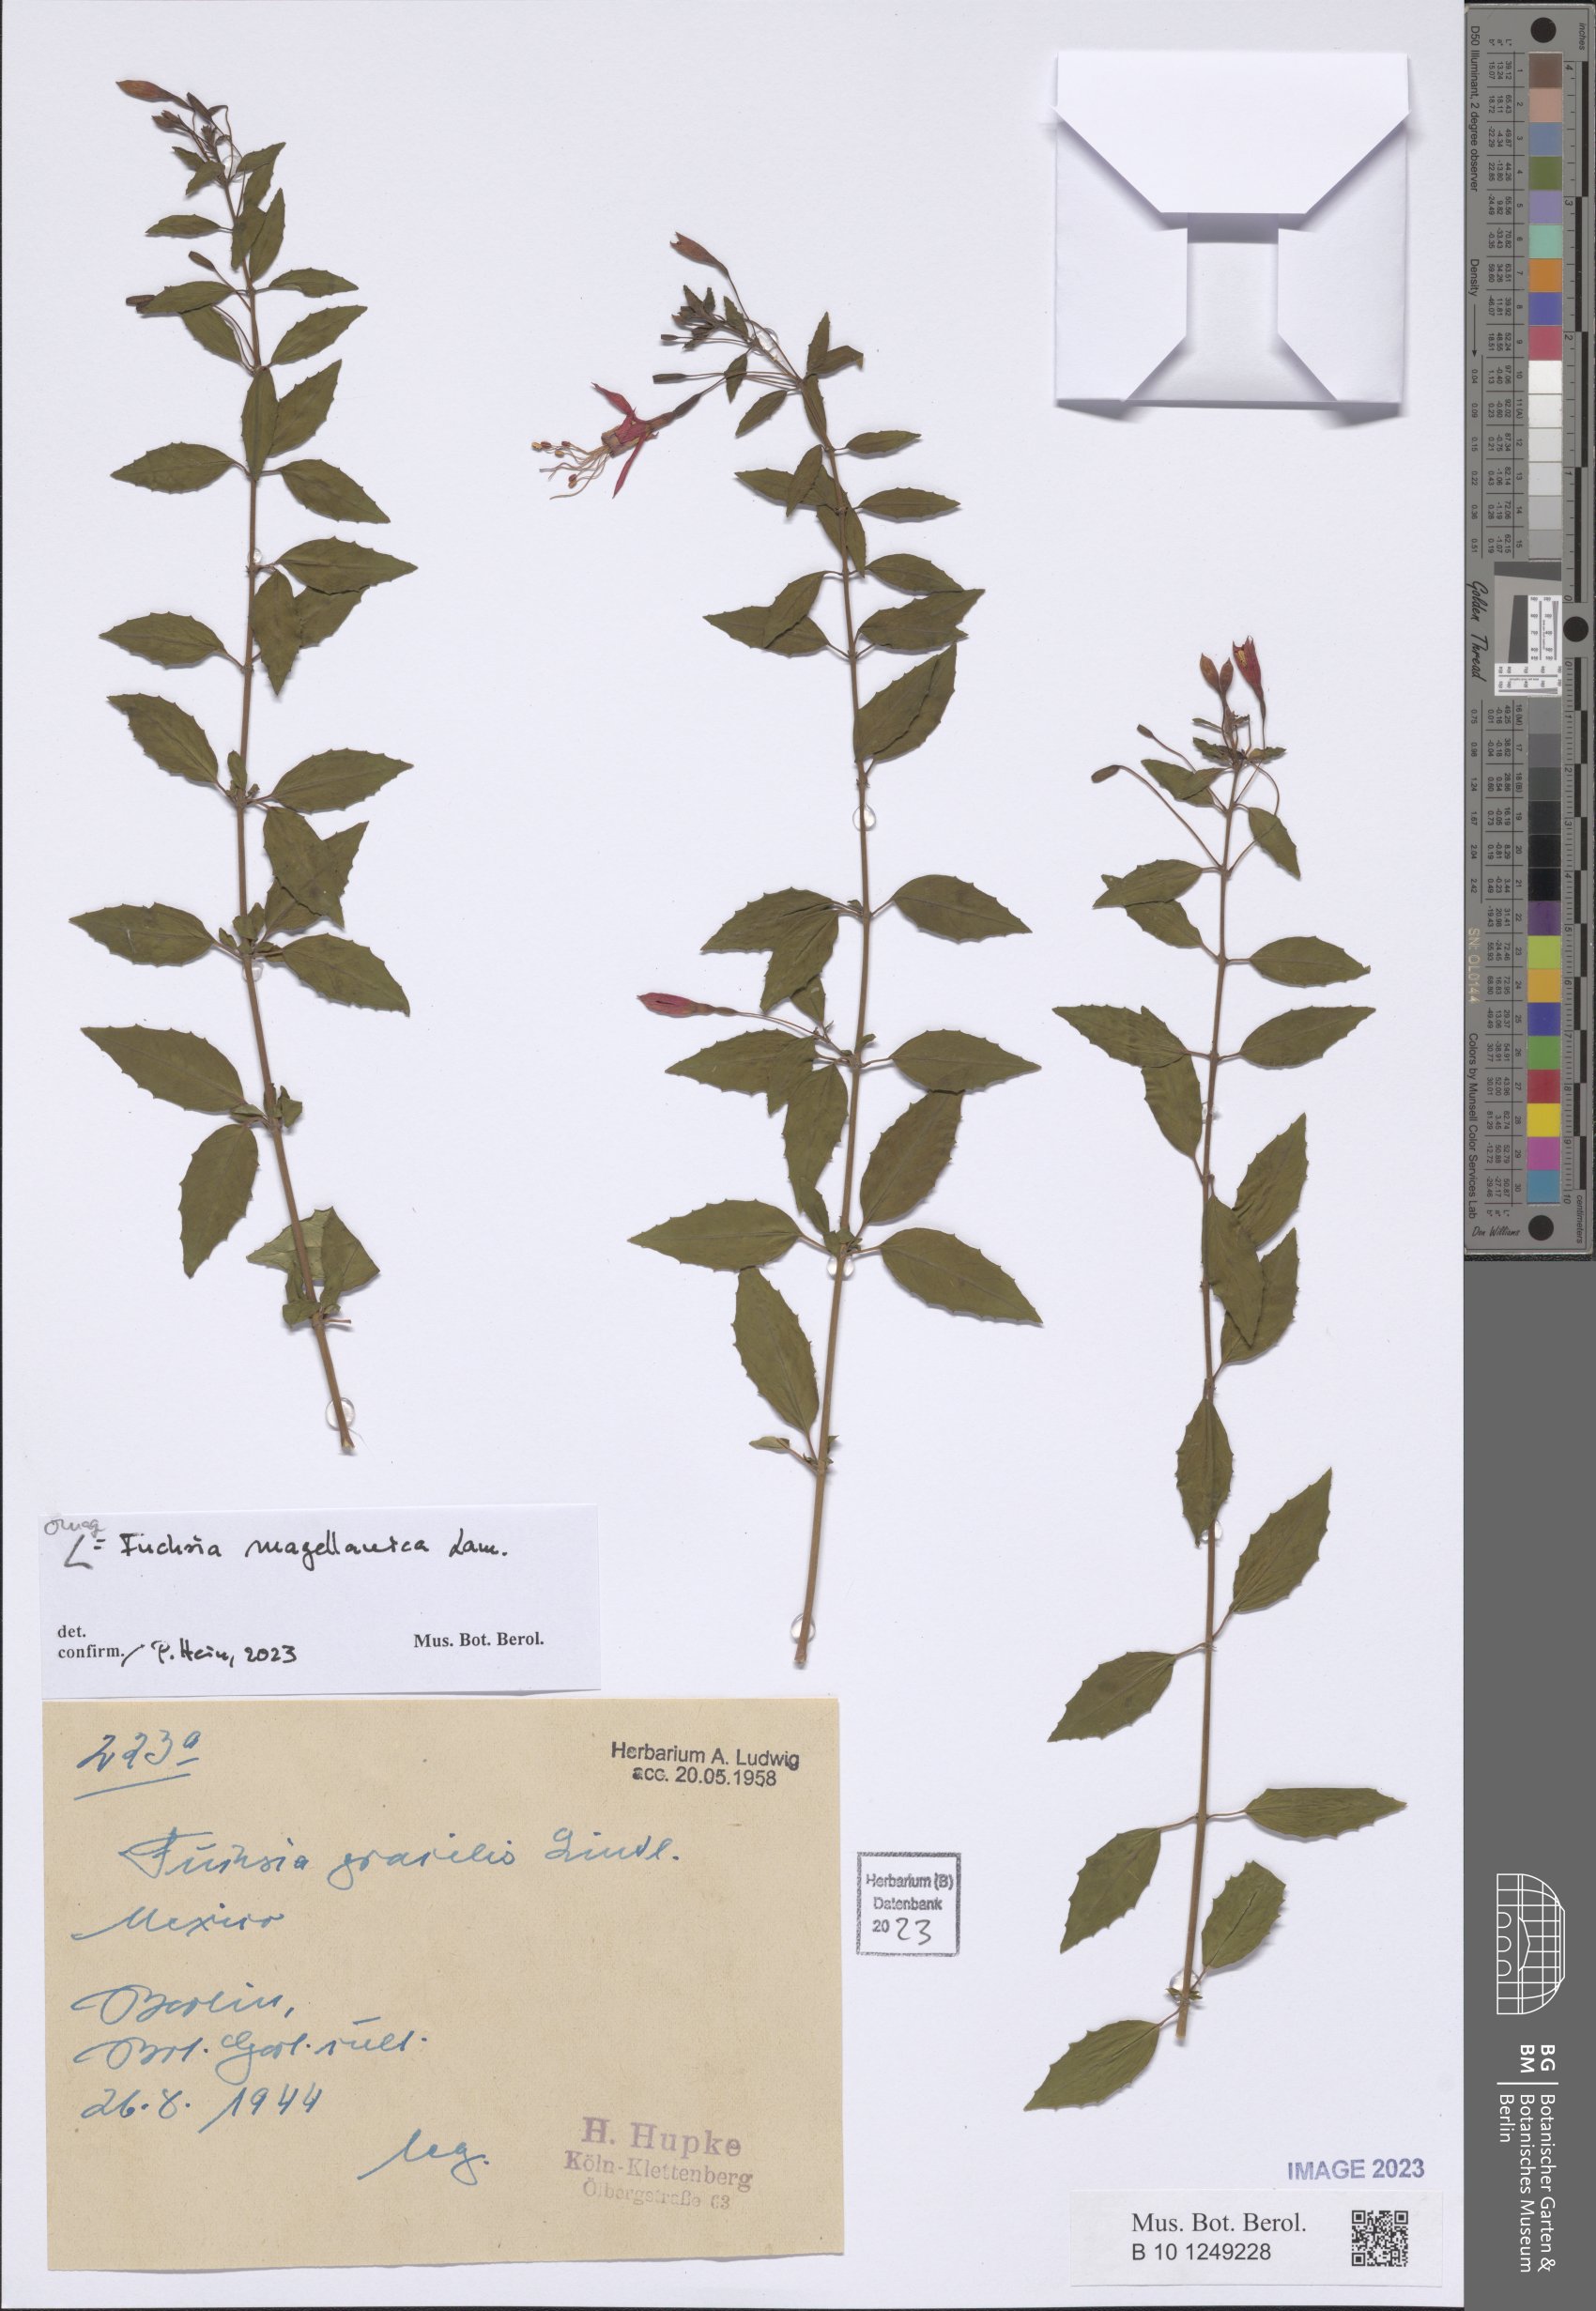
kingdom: Plantae
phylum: Tracheophyta
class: Magnoliopsida
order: Myrtales
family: Onagraceae
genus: Fuchsia
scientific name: Fuchsia magellanica
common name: Hardy fuchsia
